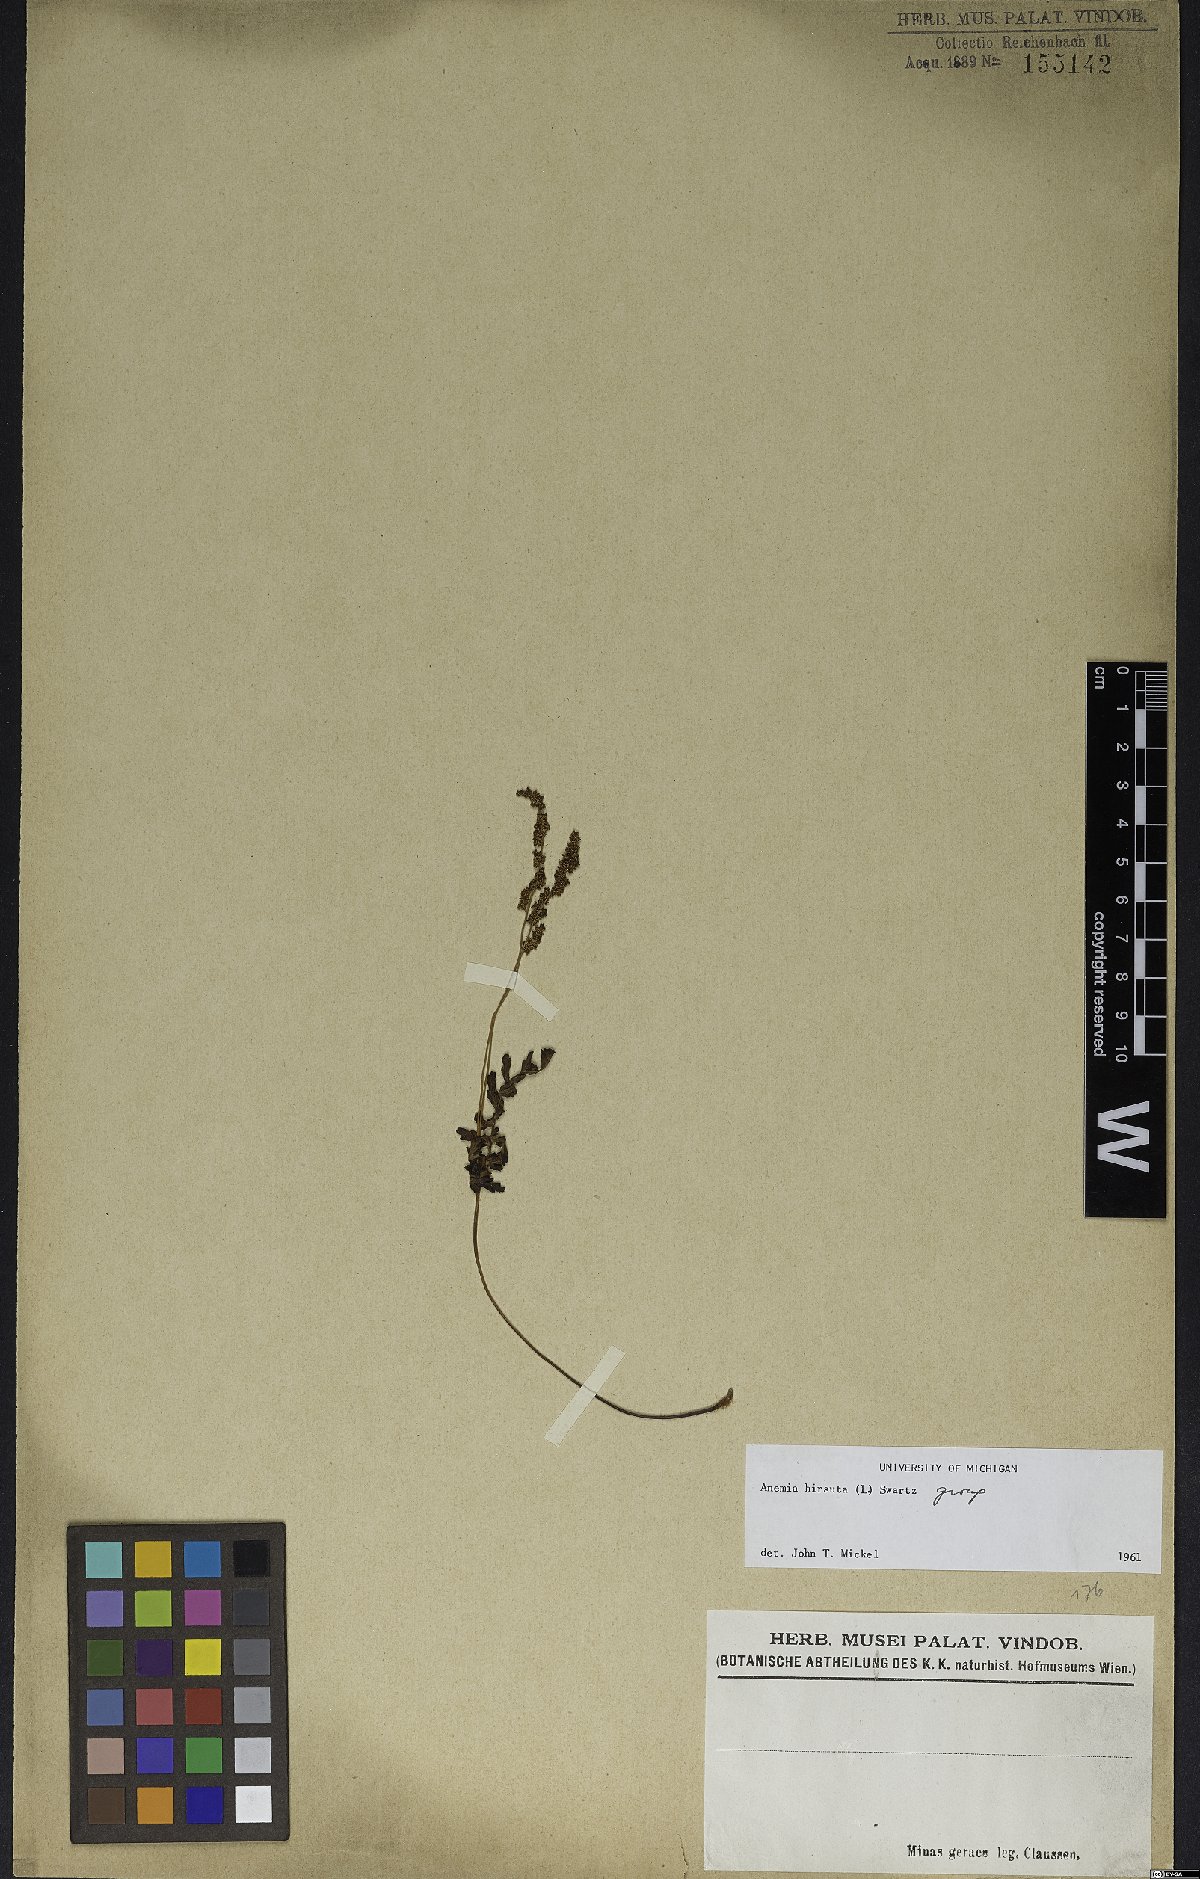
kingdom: Plantae
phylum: Tracheophyta
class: Polypodiopsida
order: Schizaeales
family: Anemiaceae
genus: Anemia
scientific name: Anemia hirsuta
